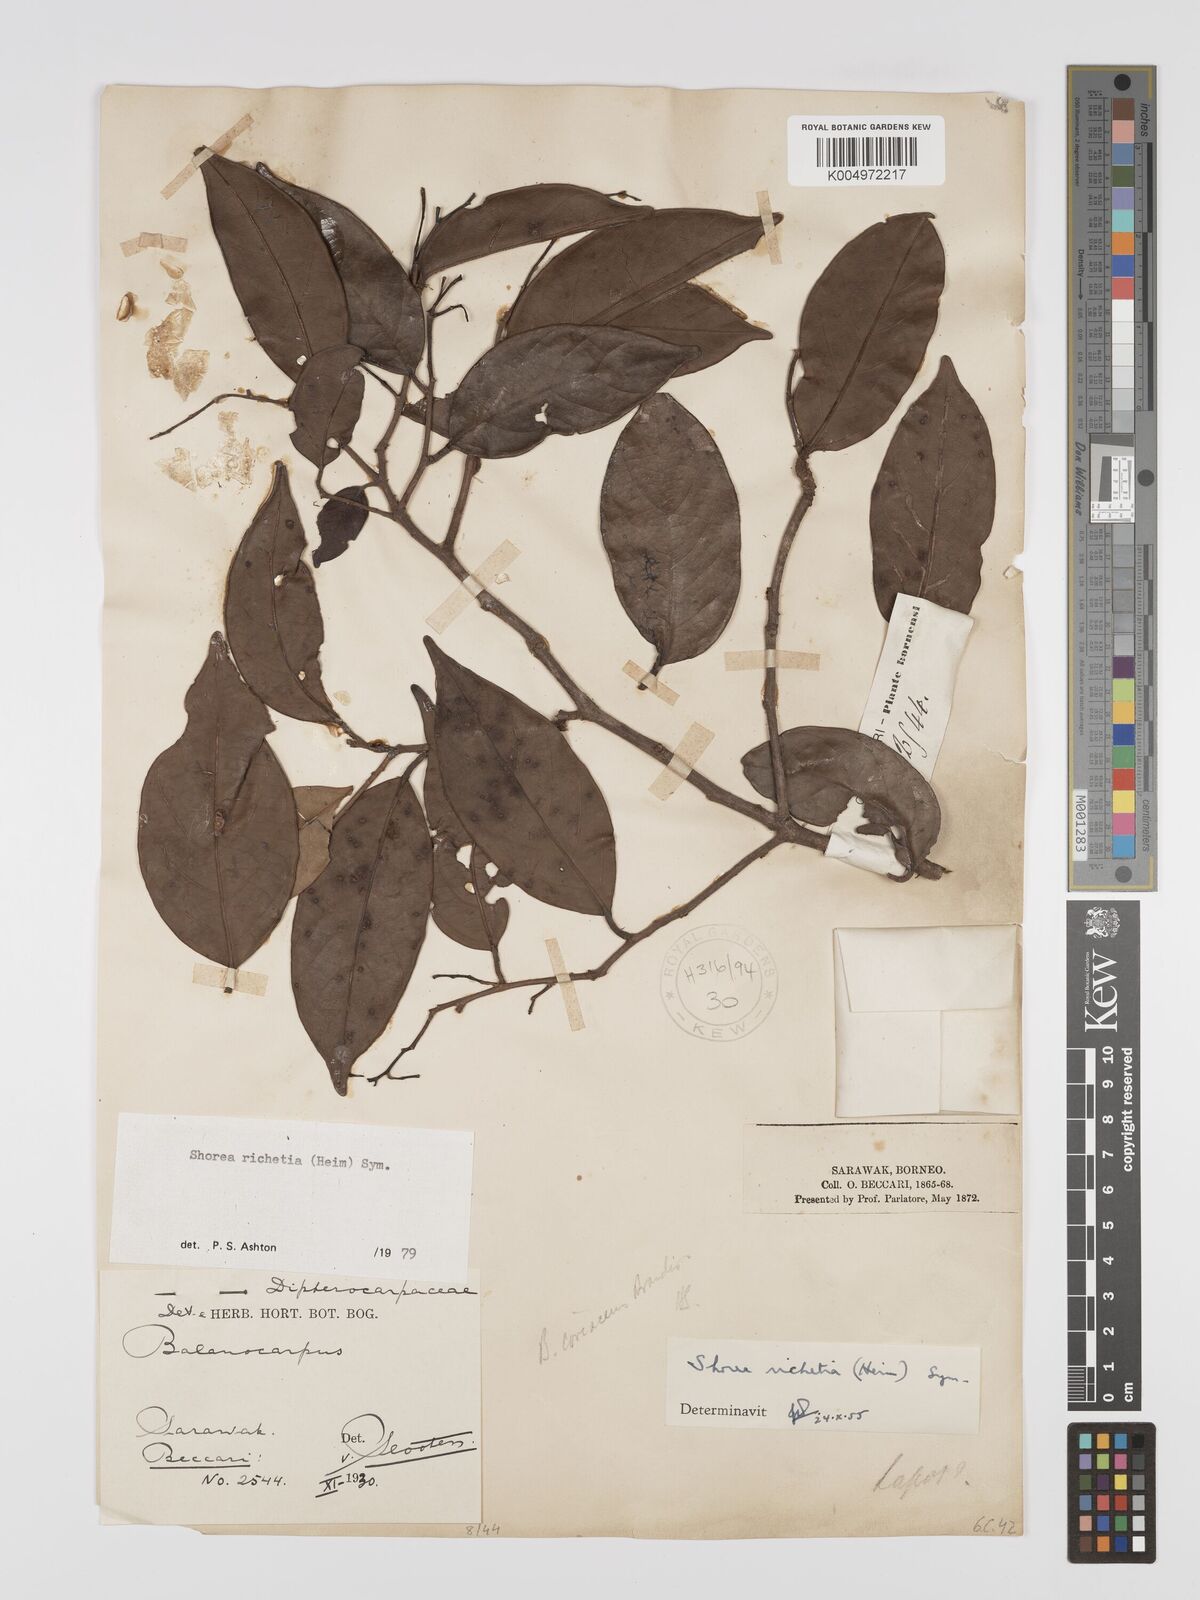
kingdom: Plantae
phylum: Tracheophyta
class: Magnoliopsida
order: Malvales
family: Dipterocarpaceae
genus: Shorea
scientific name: Shorea richetia
